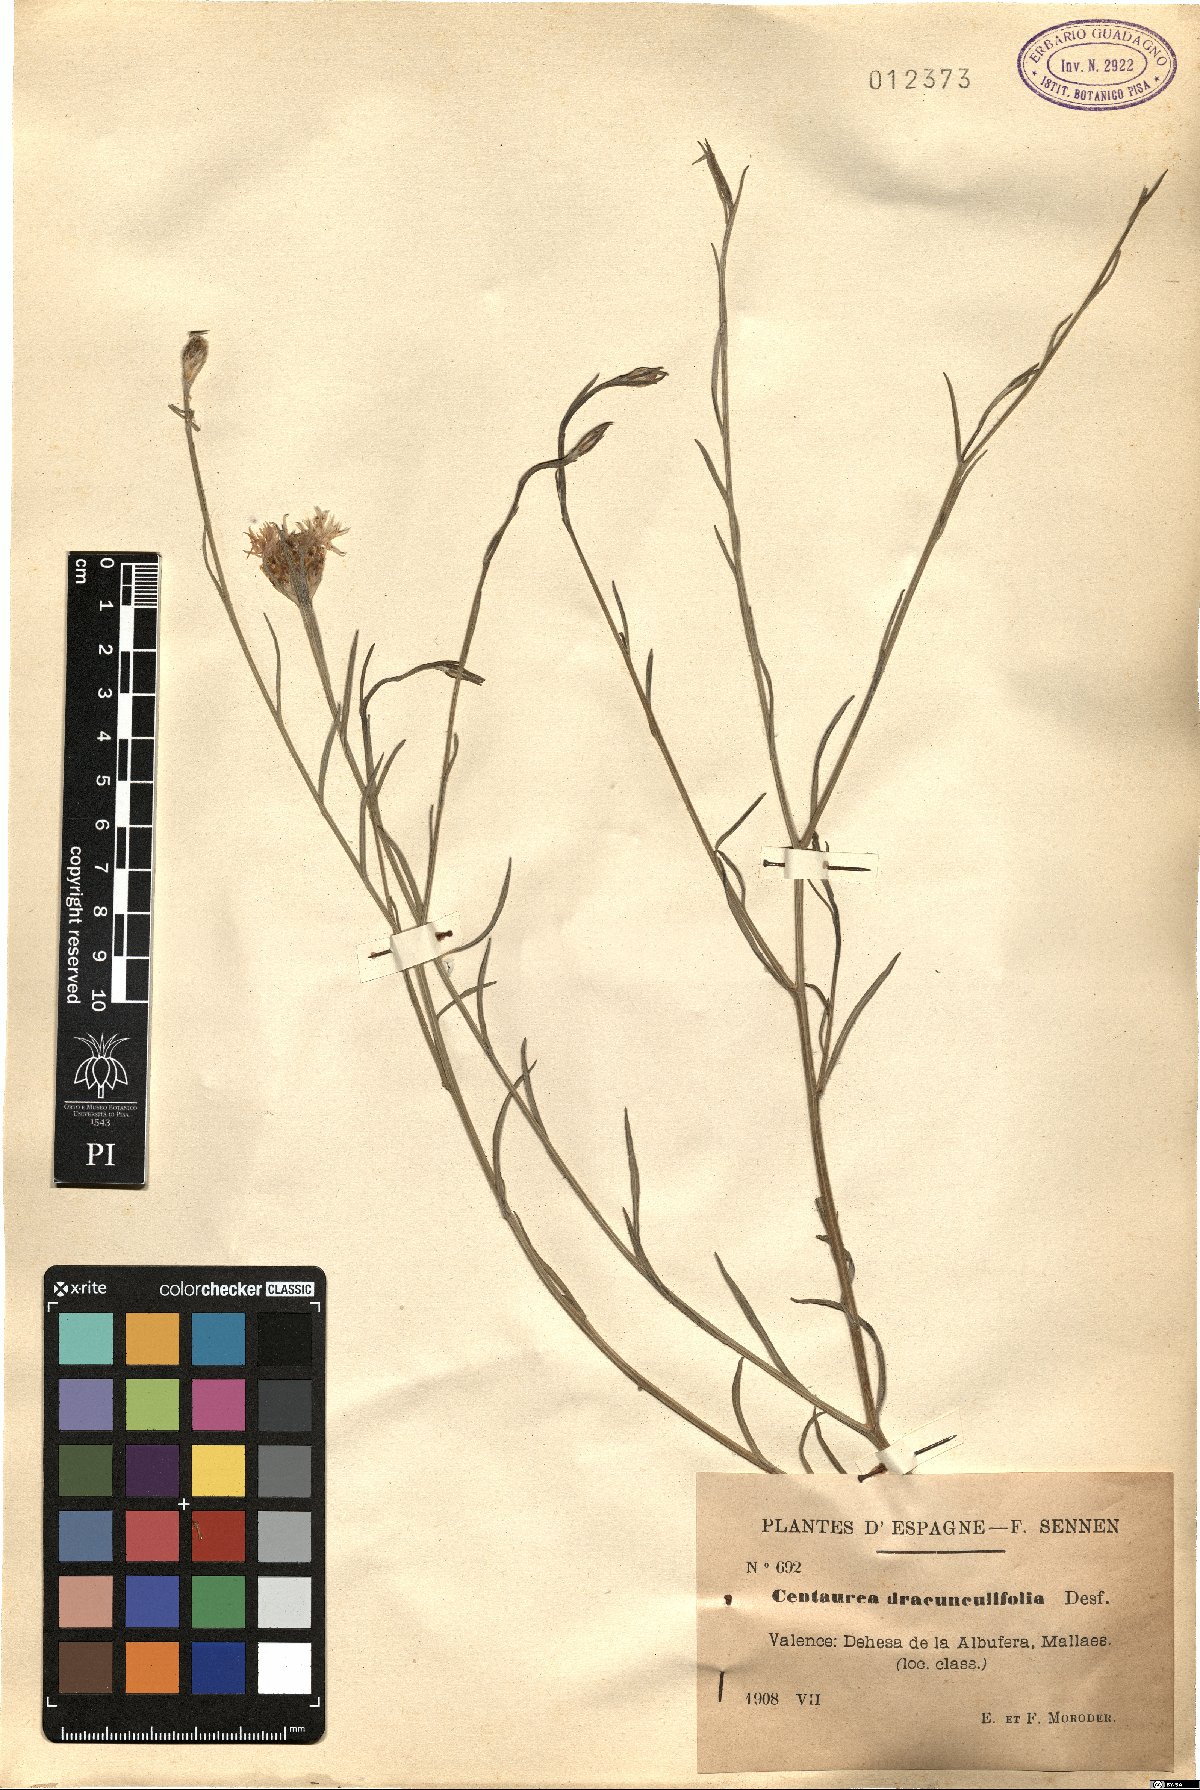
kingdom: Plantae
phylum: Tracheophyta
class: Magnoliopsida
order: Asterales
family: Asteraceae
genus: Centaurea
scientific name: Centaurea dracunculifolia
